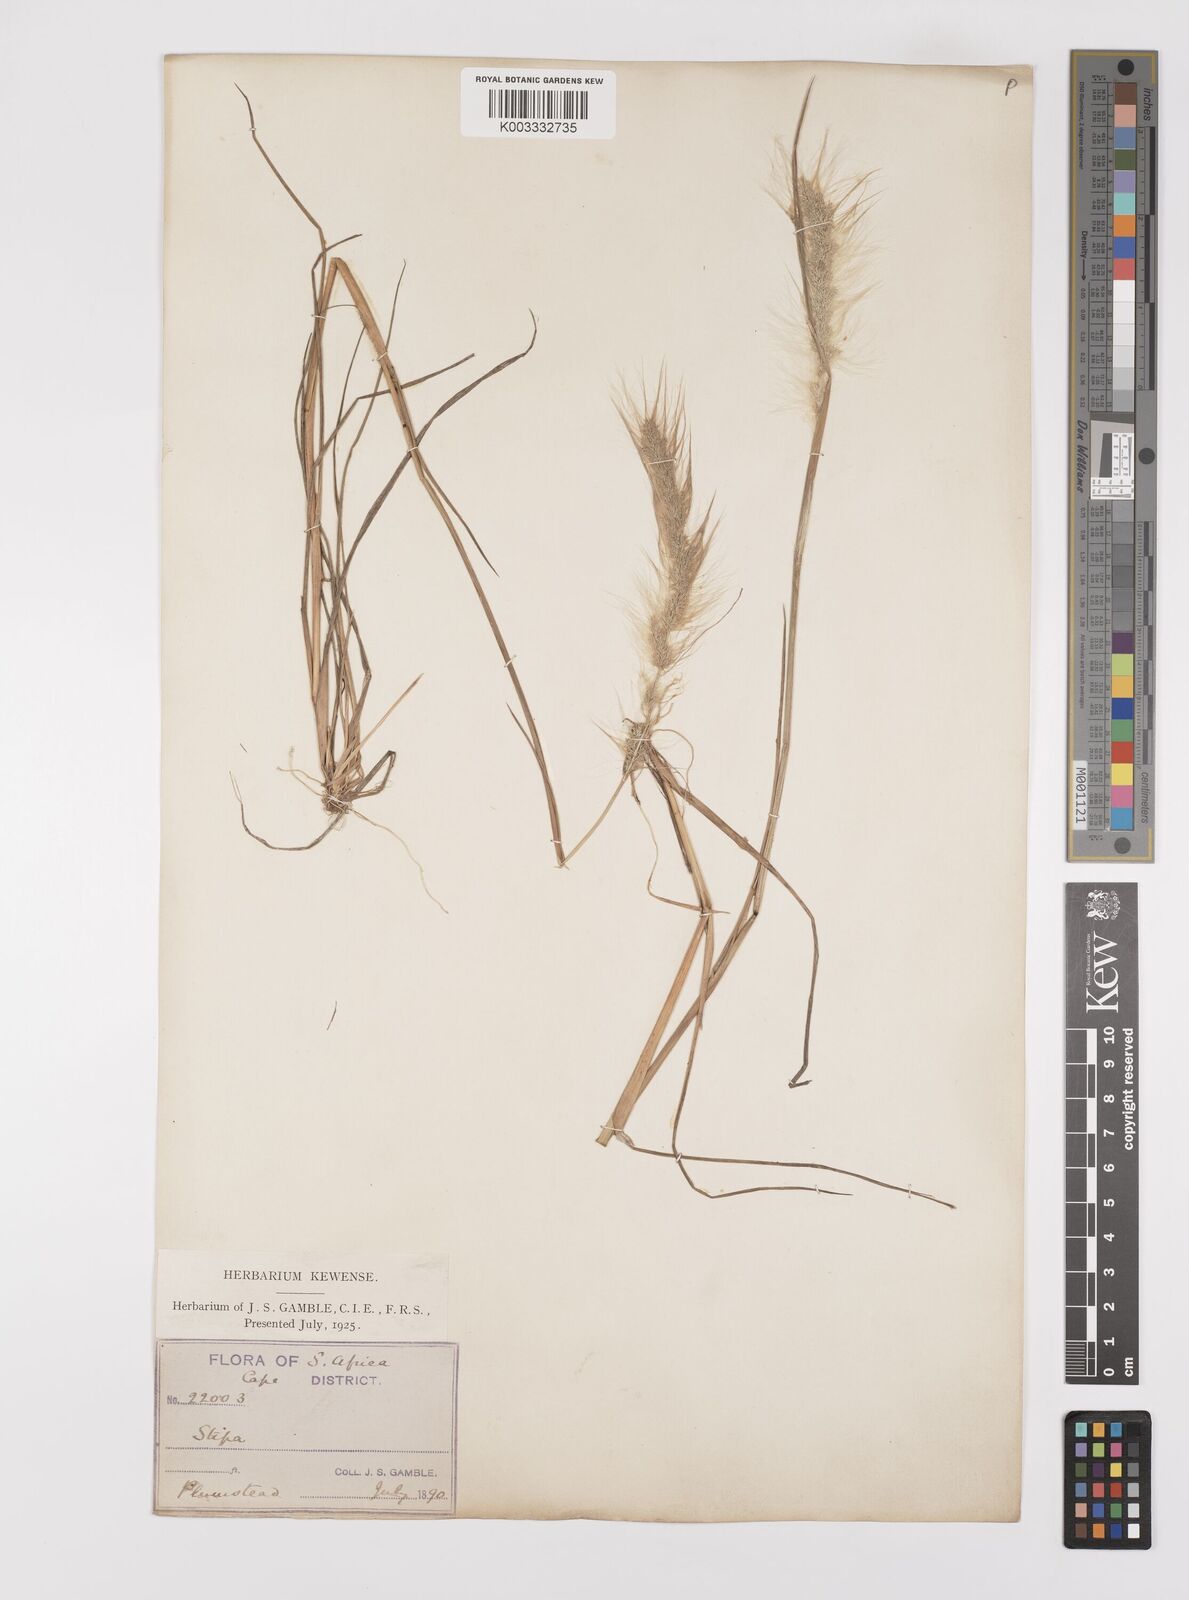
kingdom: Plantae
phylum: Tracheophyta
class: Liliopsida
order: Poales
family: Poaceae
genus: Polypogon
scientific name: Polypogon tenuis
